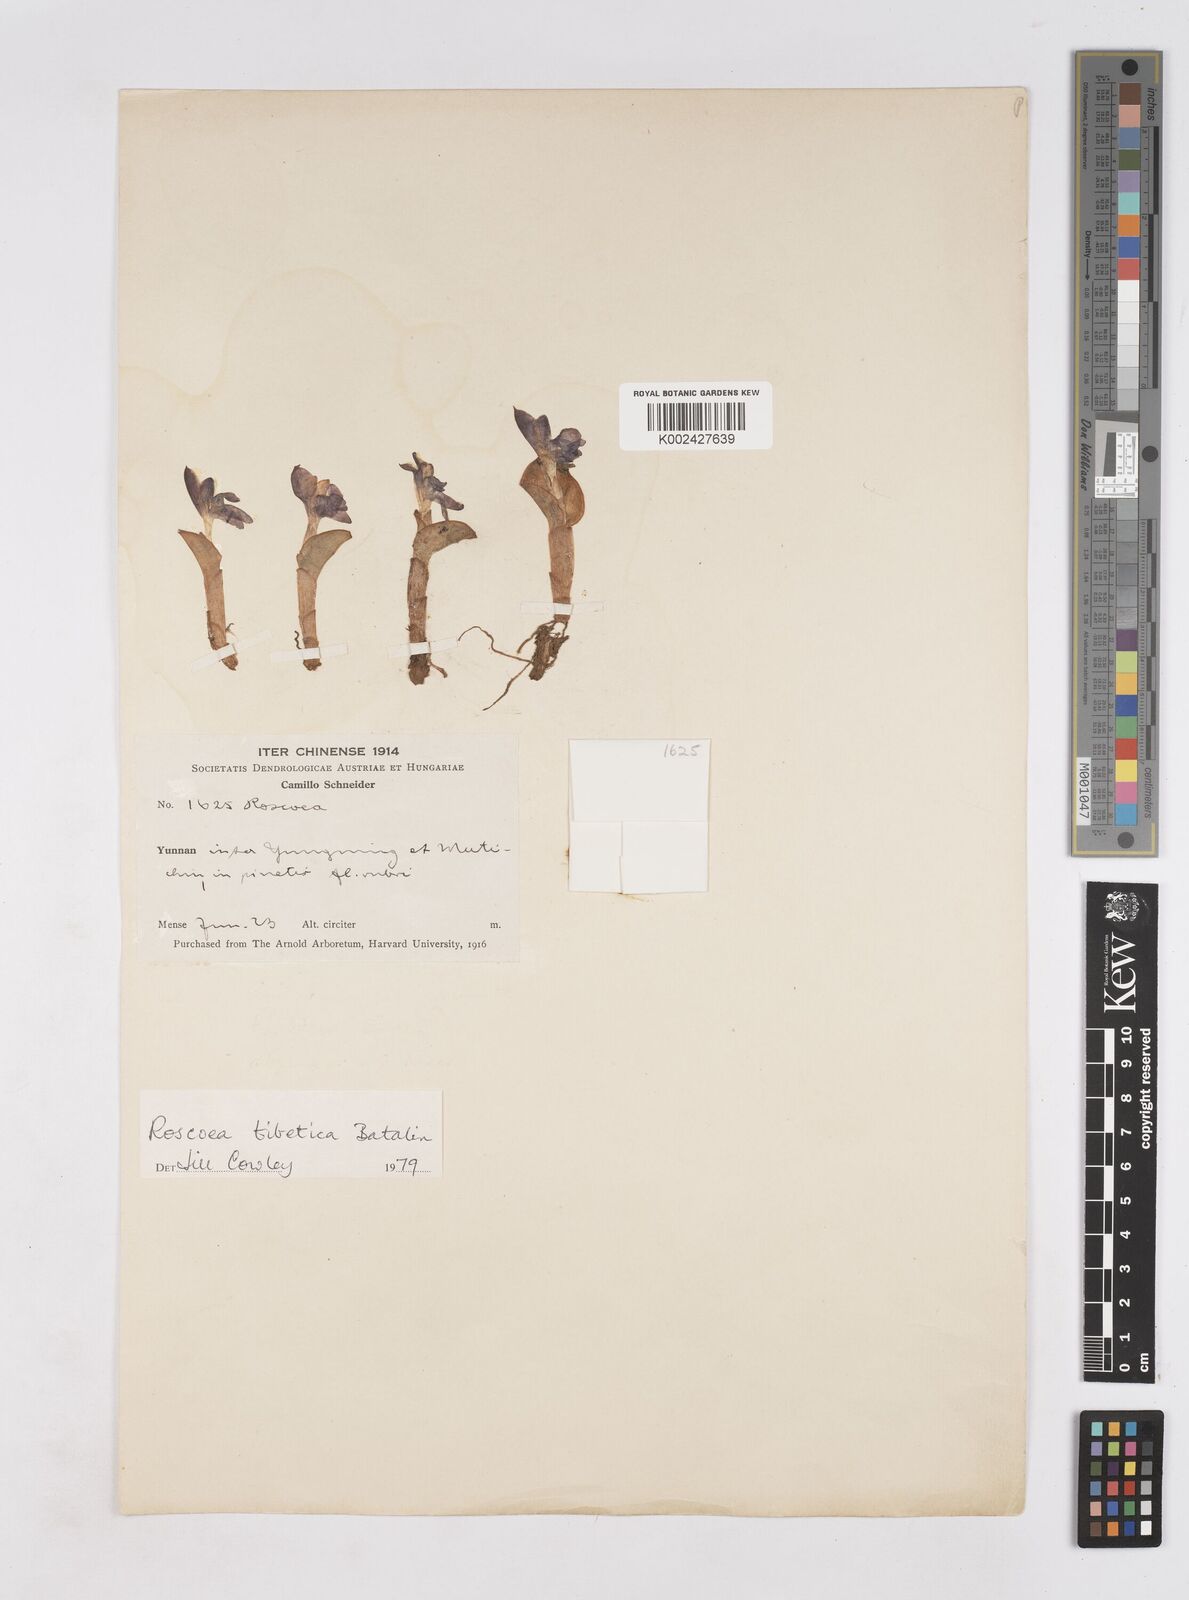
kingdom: Plantae
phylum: Tracheophyta
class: Liliopsida
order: Zingiberales
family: Zingiberaceae
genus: Roscoea
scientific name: Roscoea tibetica
